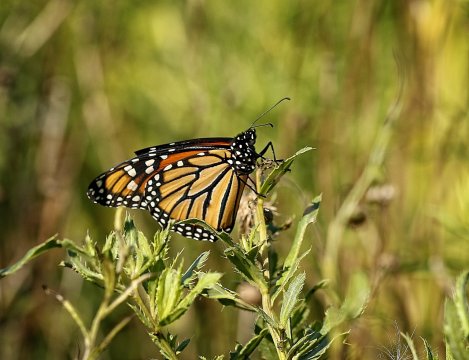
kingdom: Animalia
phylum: Arthropoda
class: Insecta
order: Lepidoptera
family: Nymphalidae
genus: Danaus
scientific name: Danaus plexippus
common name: Monarch
